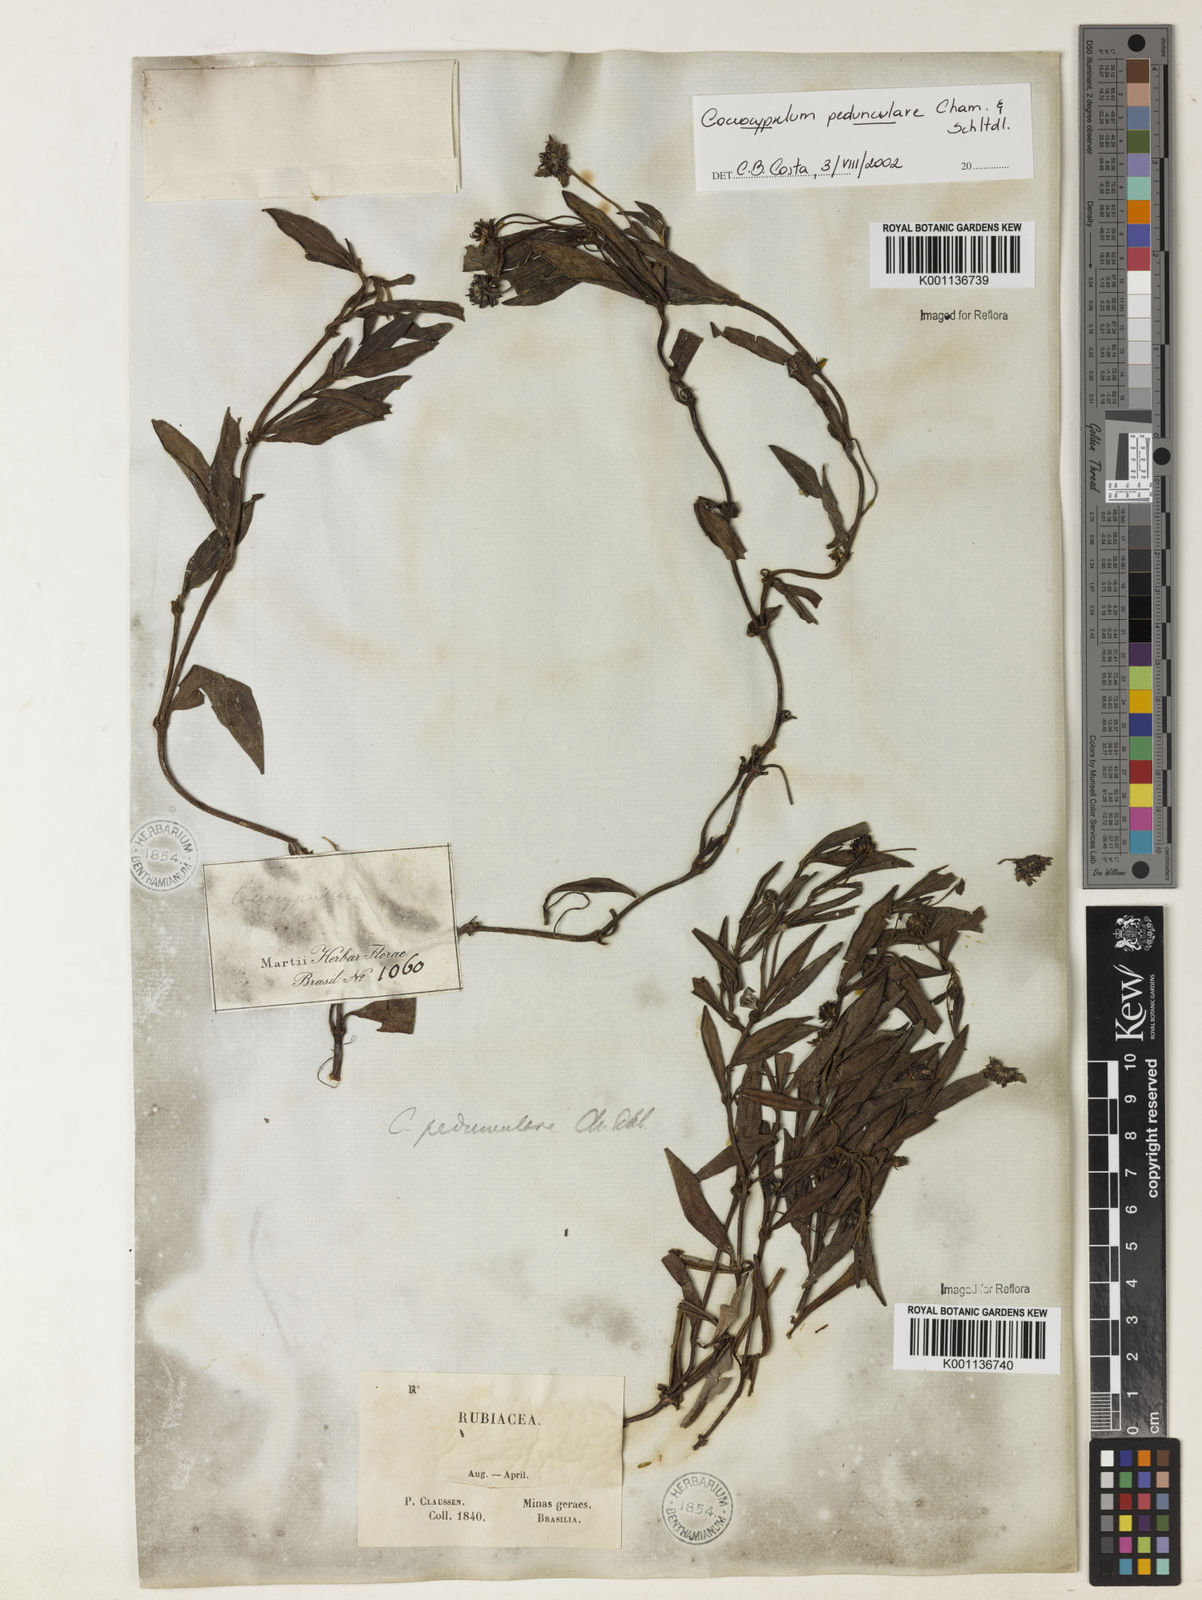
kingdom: Plantae
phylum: Tracheophyta
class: Magnoliopsida
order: Gentianales
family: Rubiaceae
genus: Coccocypselum
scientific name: Coccocypselum pedunculare
